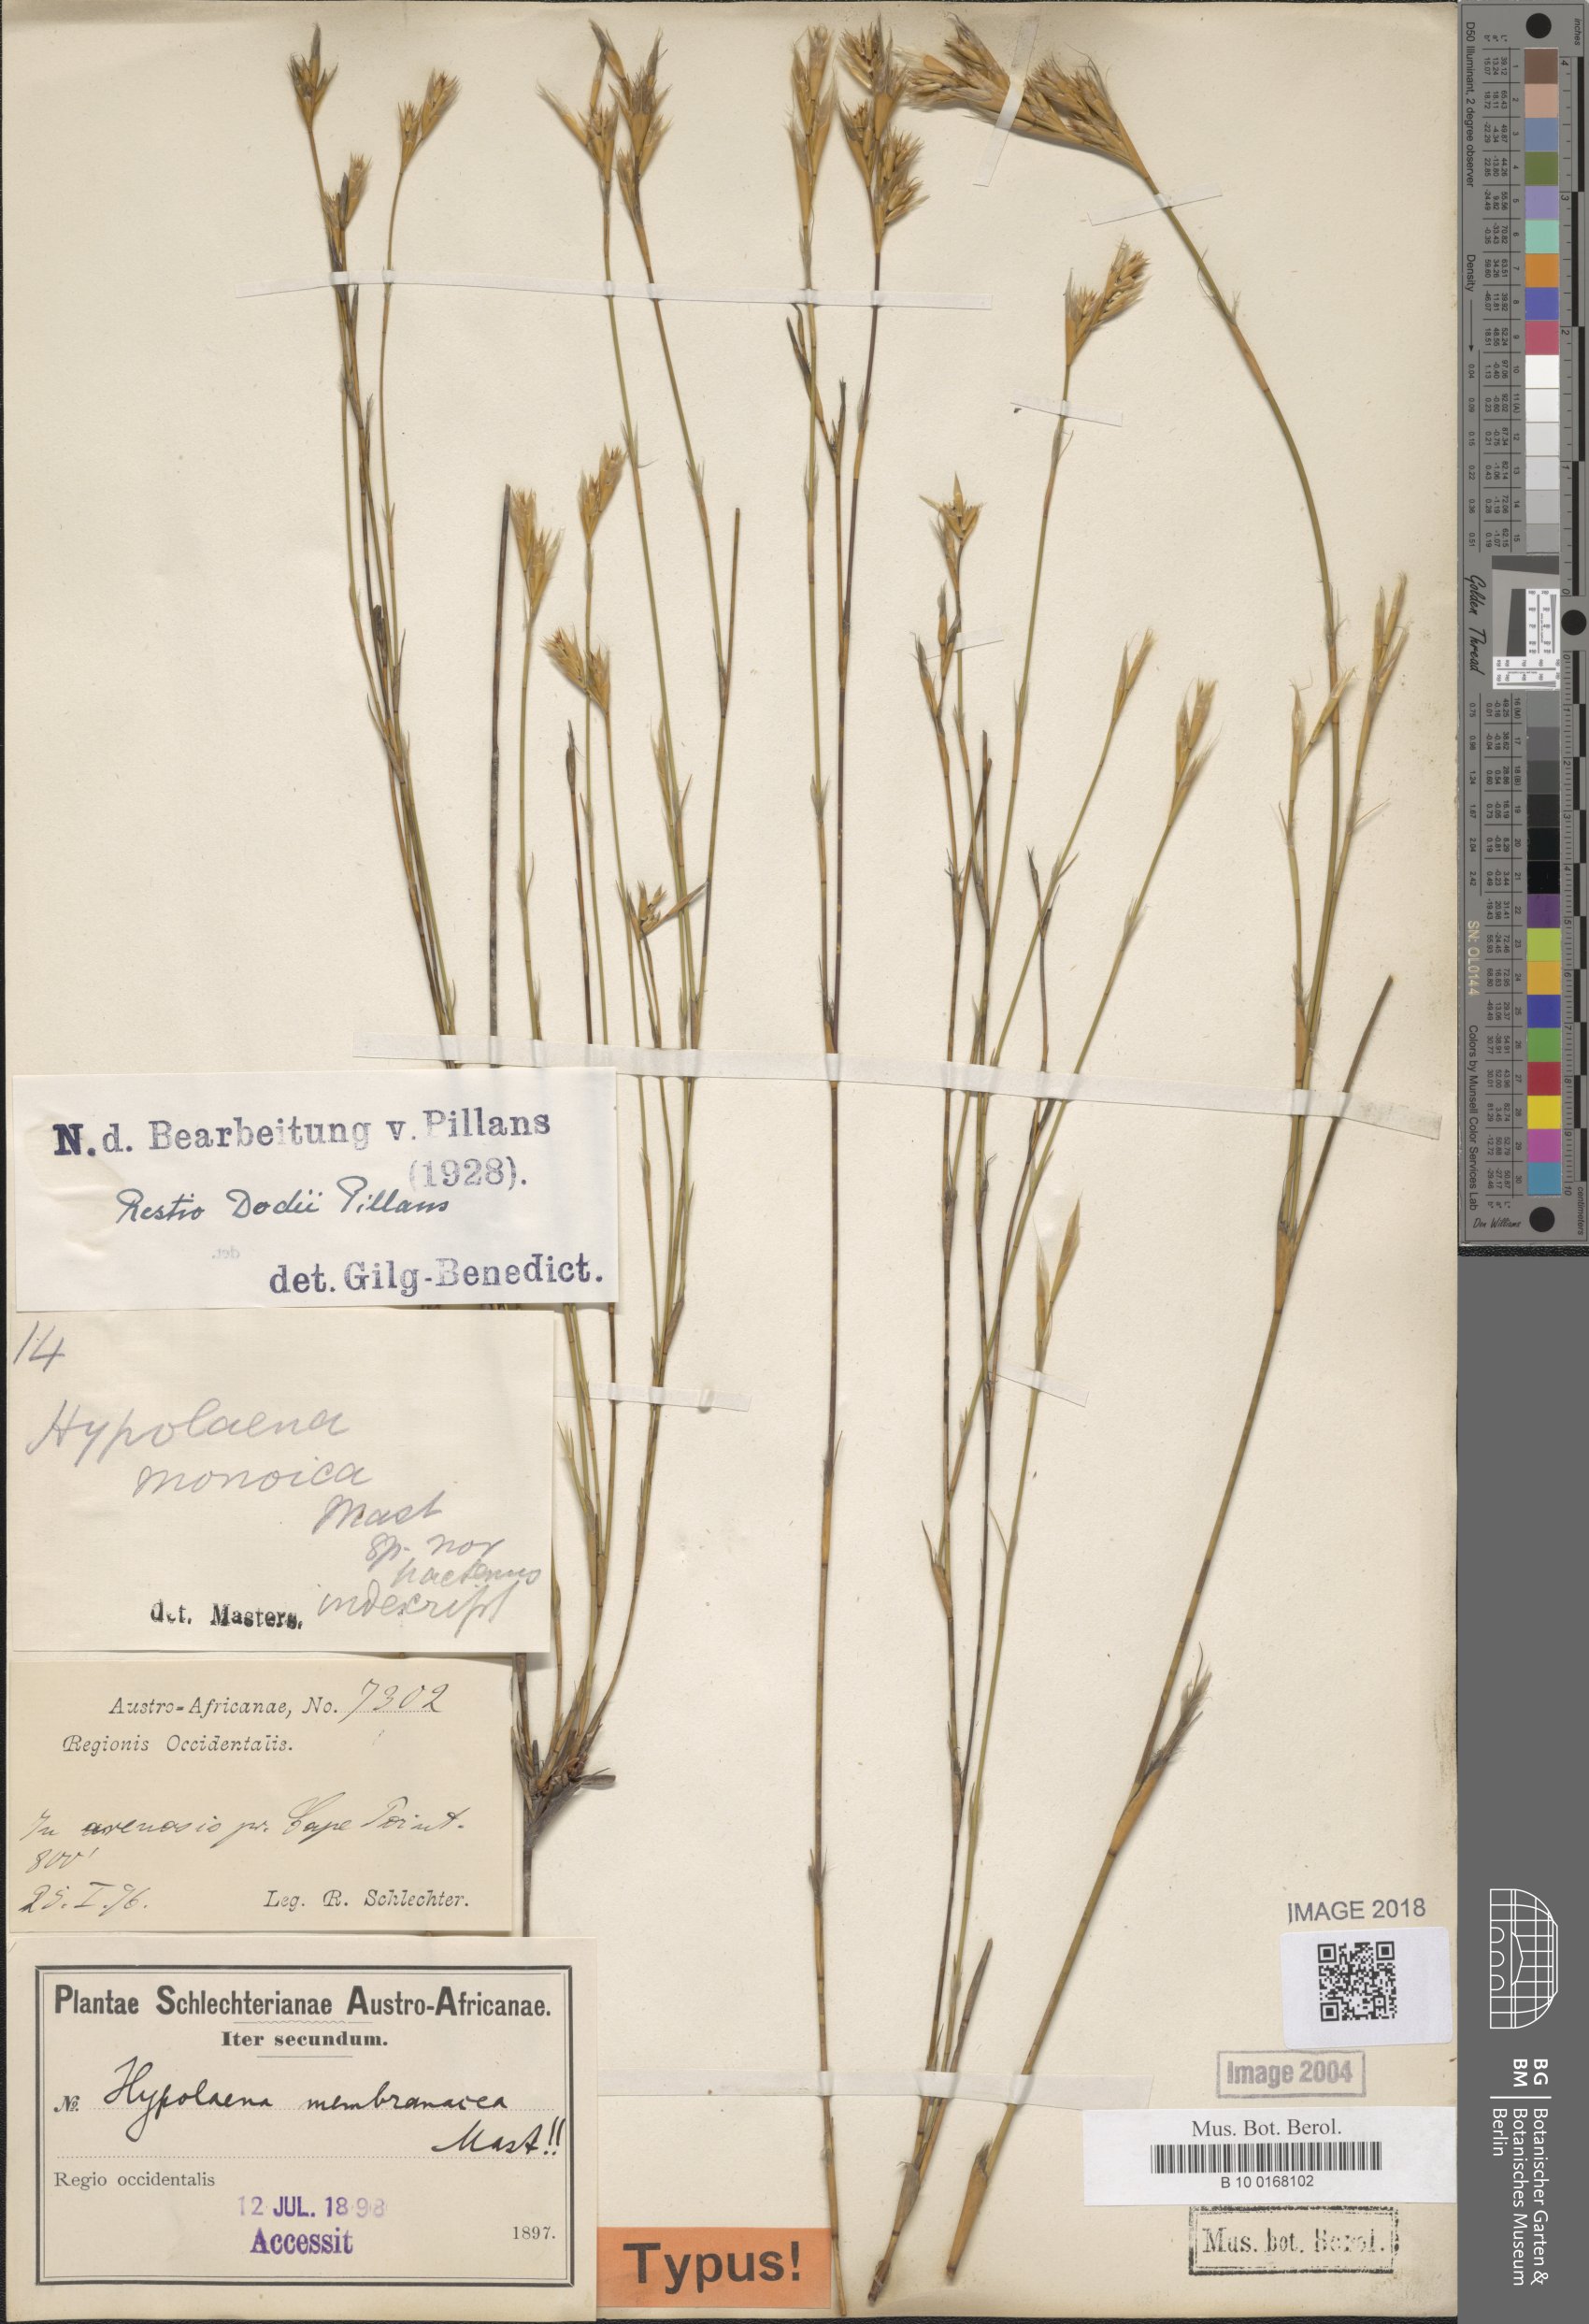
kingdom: Plantae
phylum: Tracheophyta
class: Liliopsida
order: Poales
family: Restionaceae
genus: Restio
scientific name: Restio dodii
